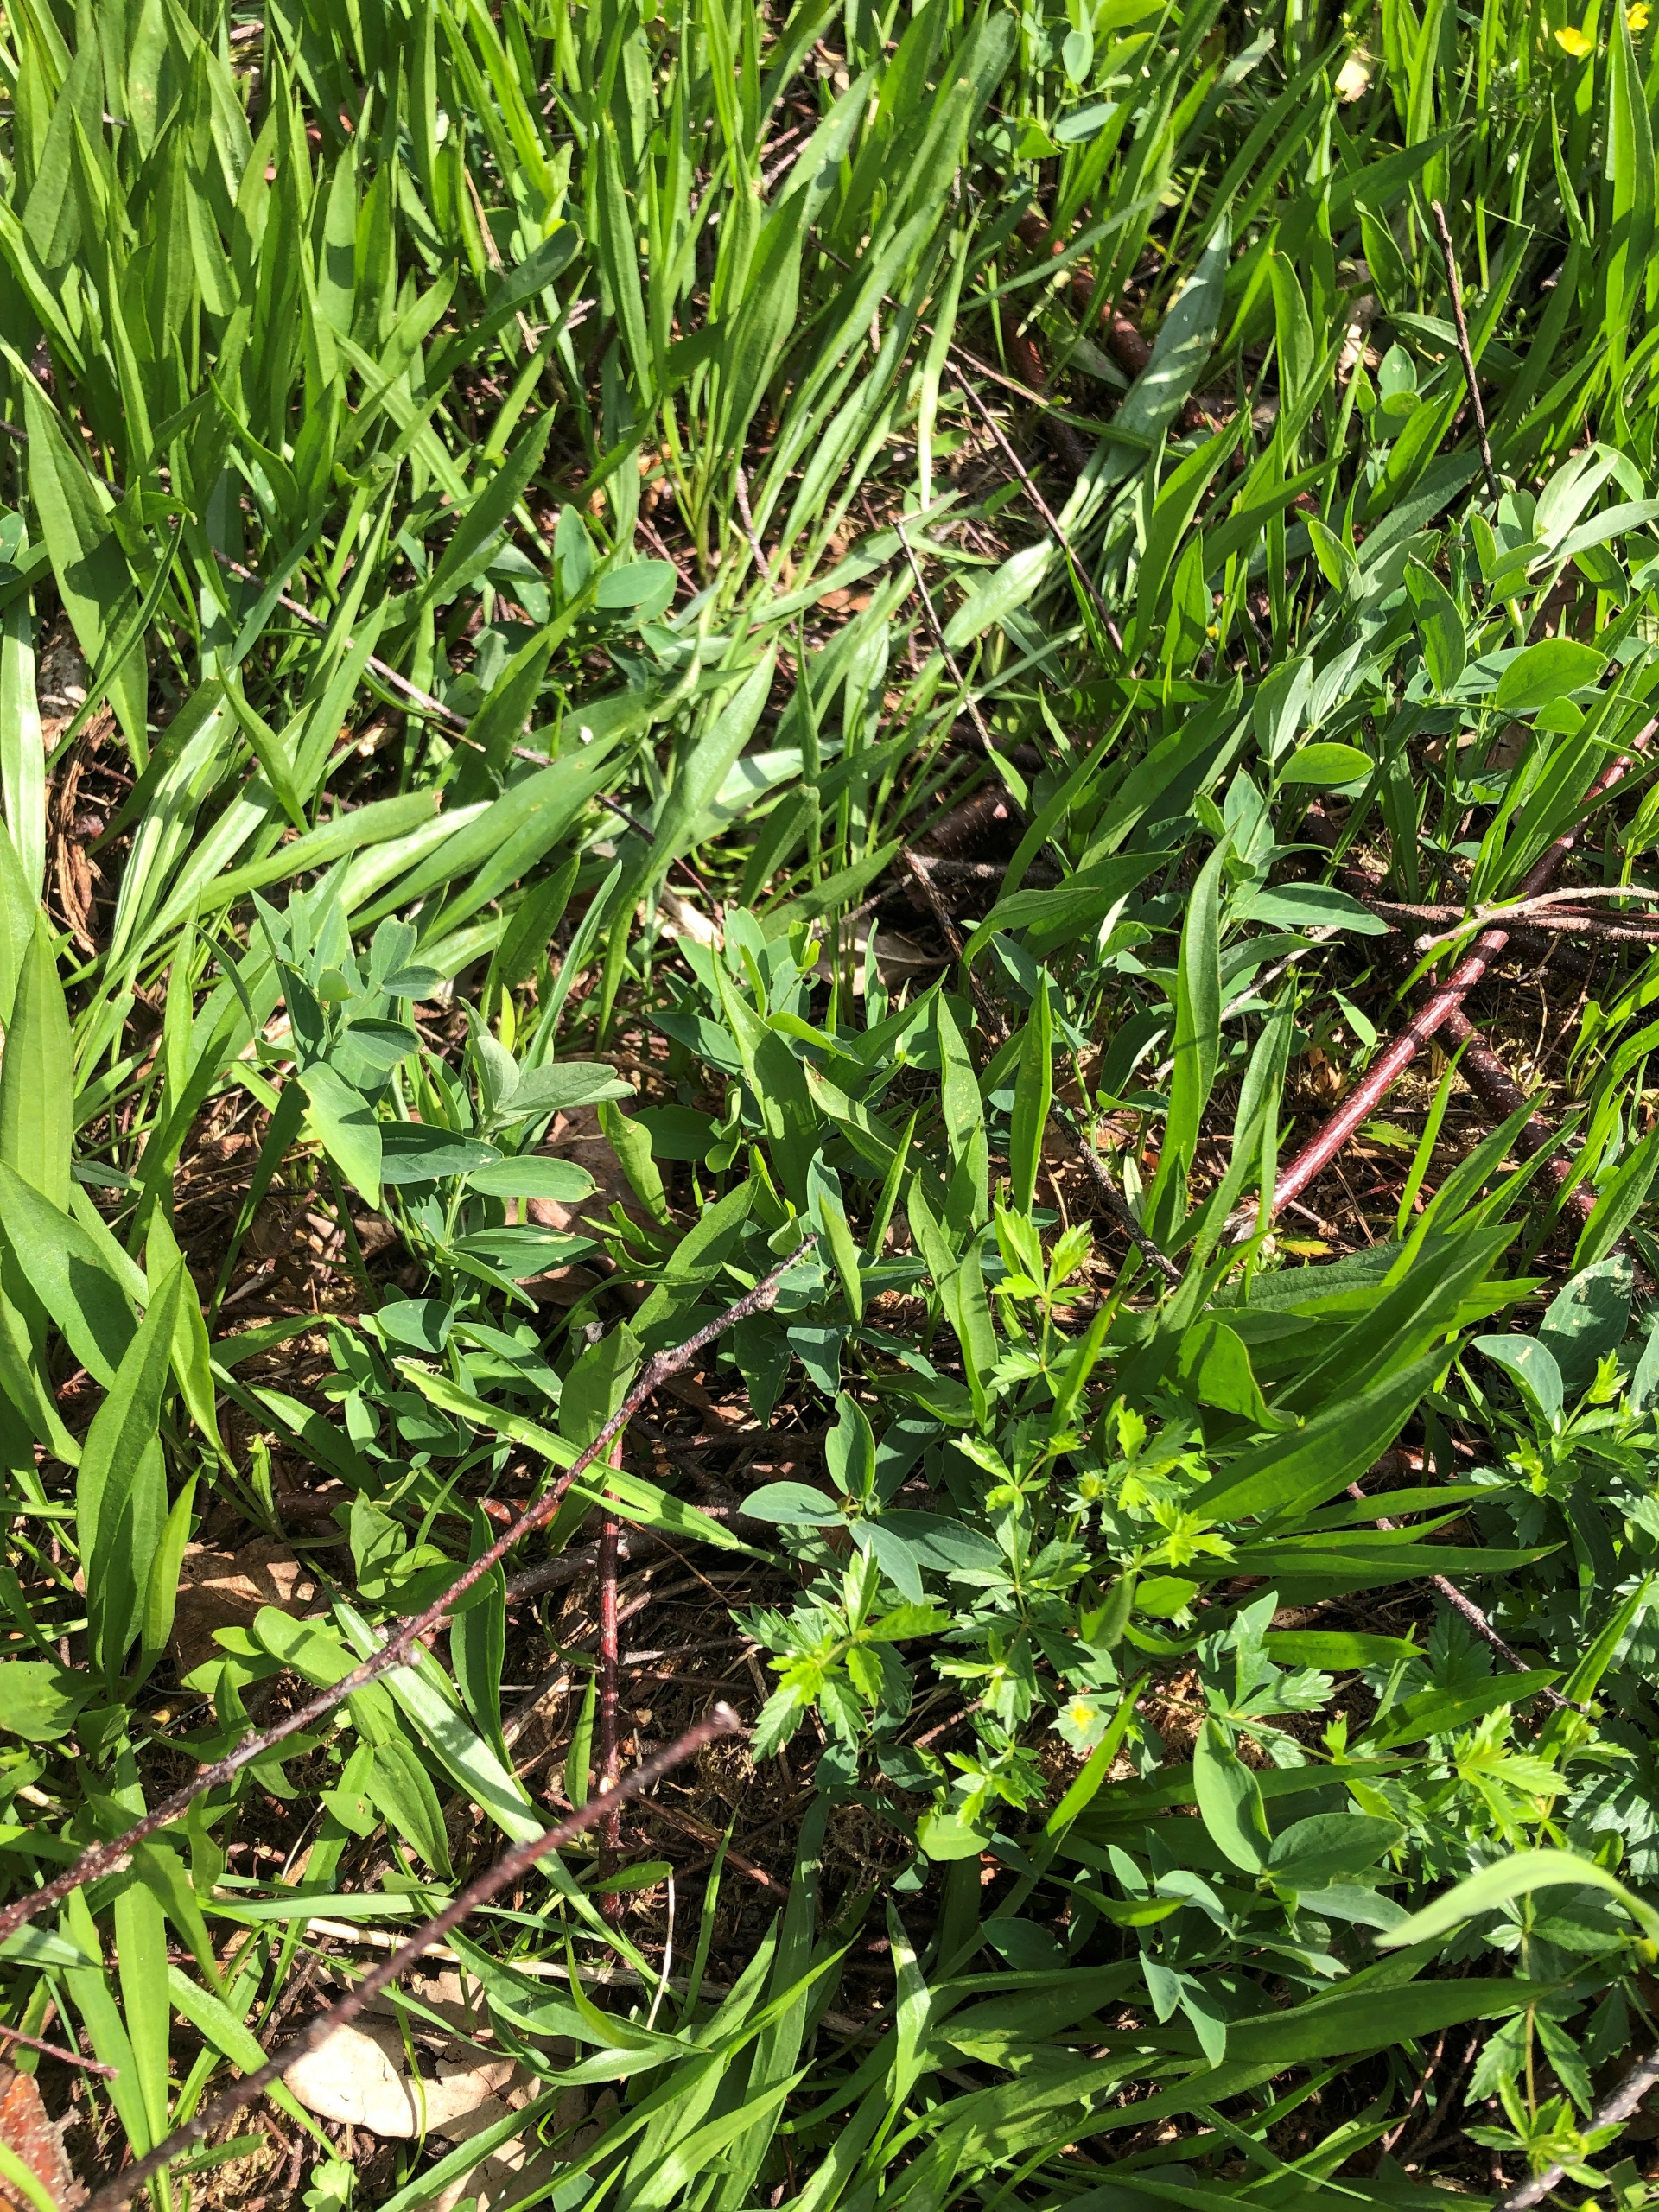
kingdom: Plantae
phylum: Tracheophyta
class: Magnoliopsida
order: Fabales
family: Fabaceae
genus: Lathyrus
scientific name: Lathyrus linifolius
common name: Krat-fladbælg
